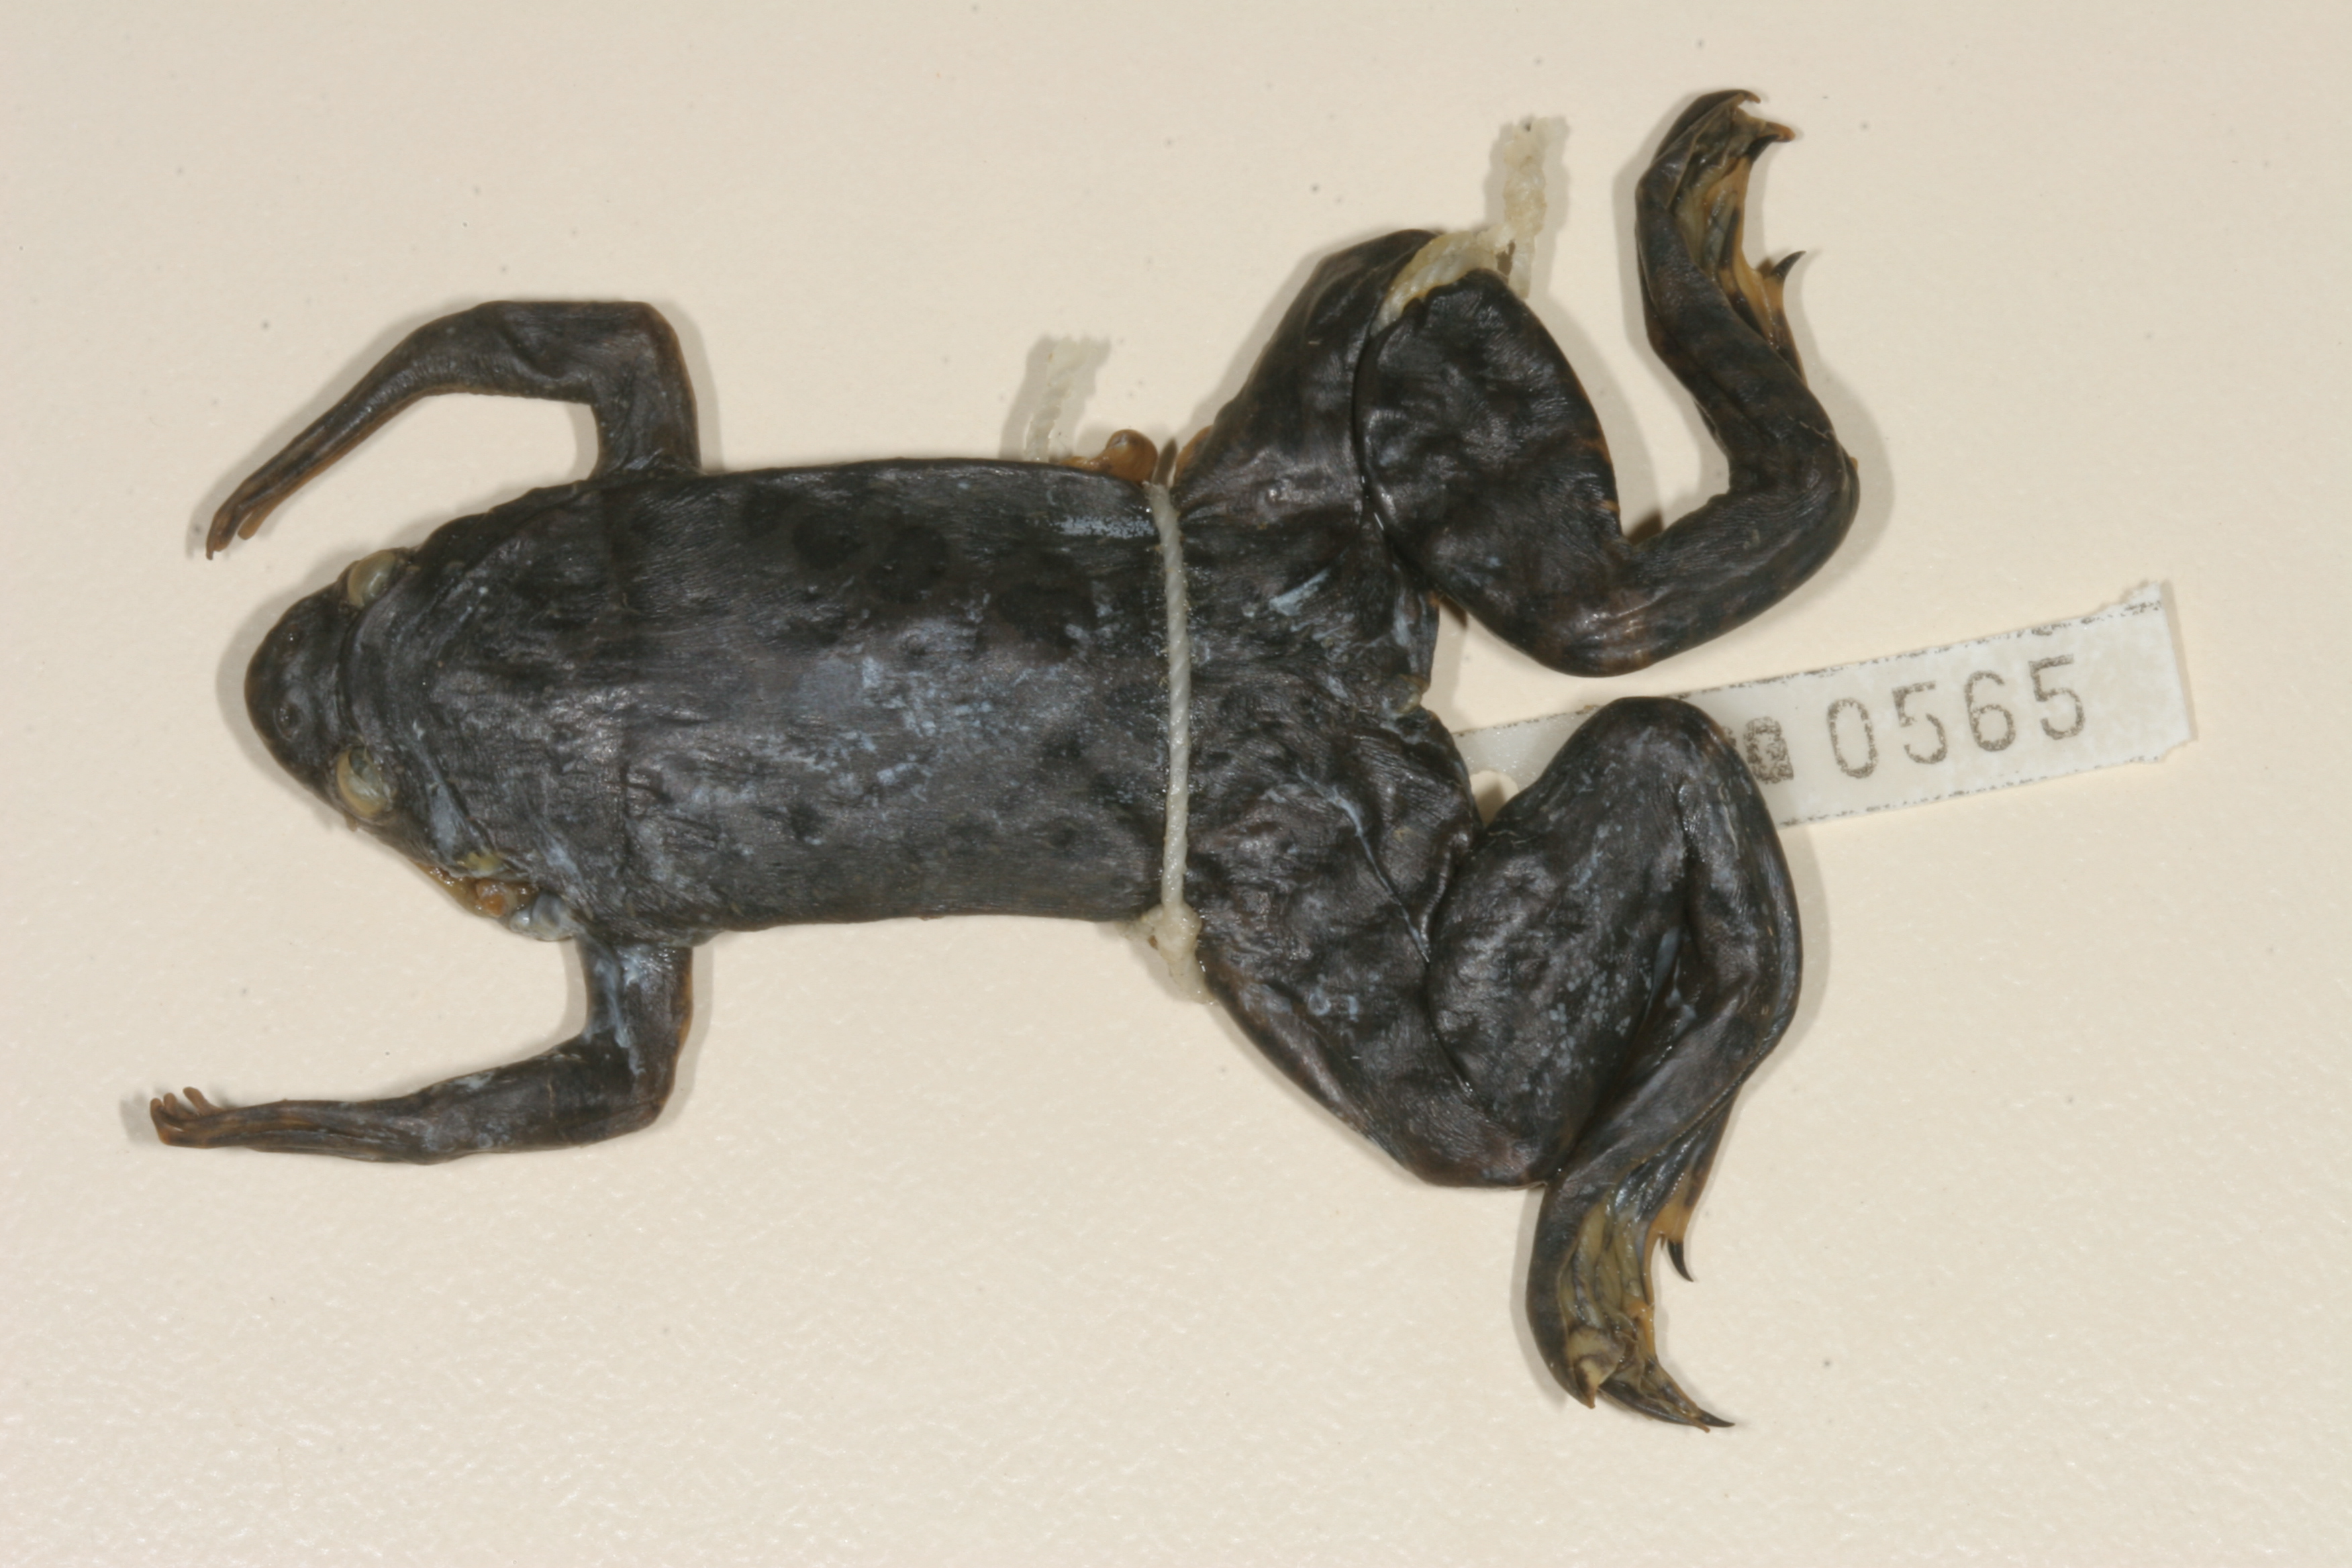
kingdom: Animalia
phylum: Chordata
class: Amphibia
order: Anura
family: Pipidae
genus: Xenopus
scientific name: Xenopus muelleri
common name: Muller's clawed frog
